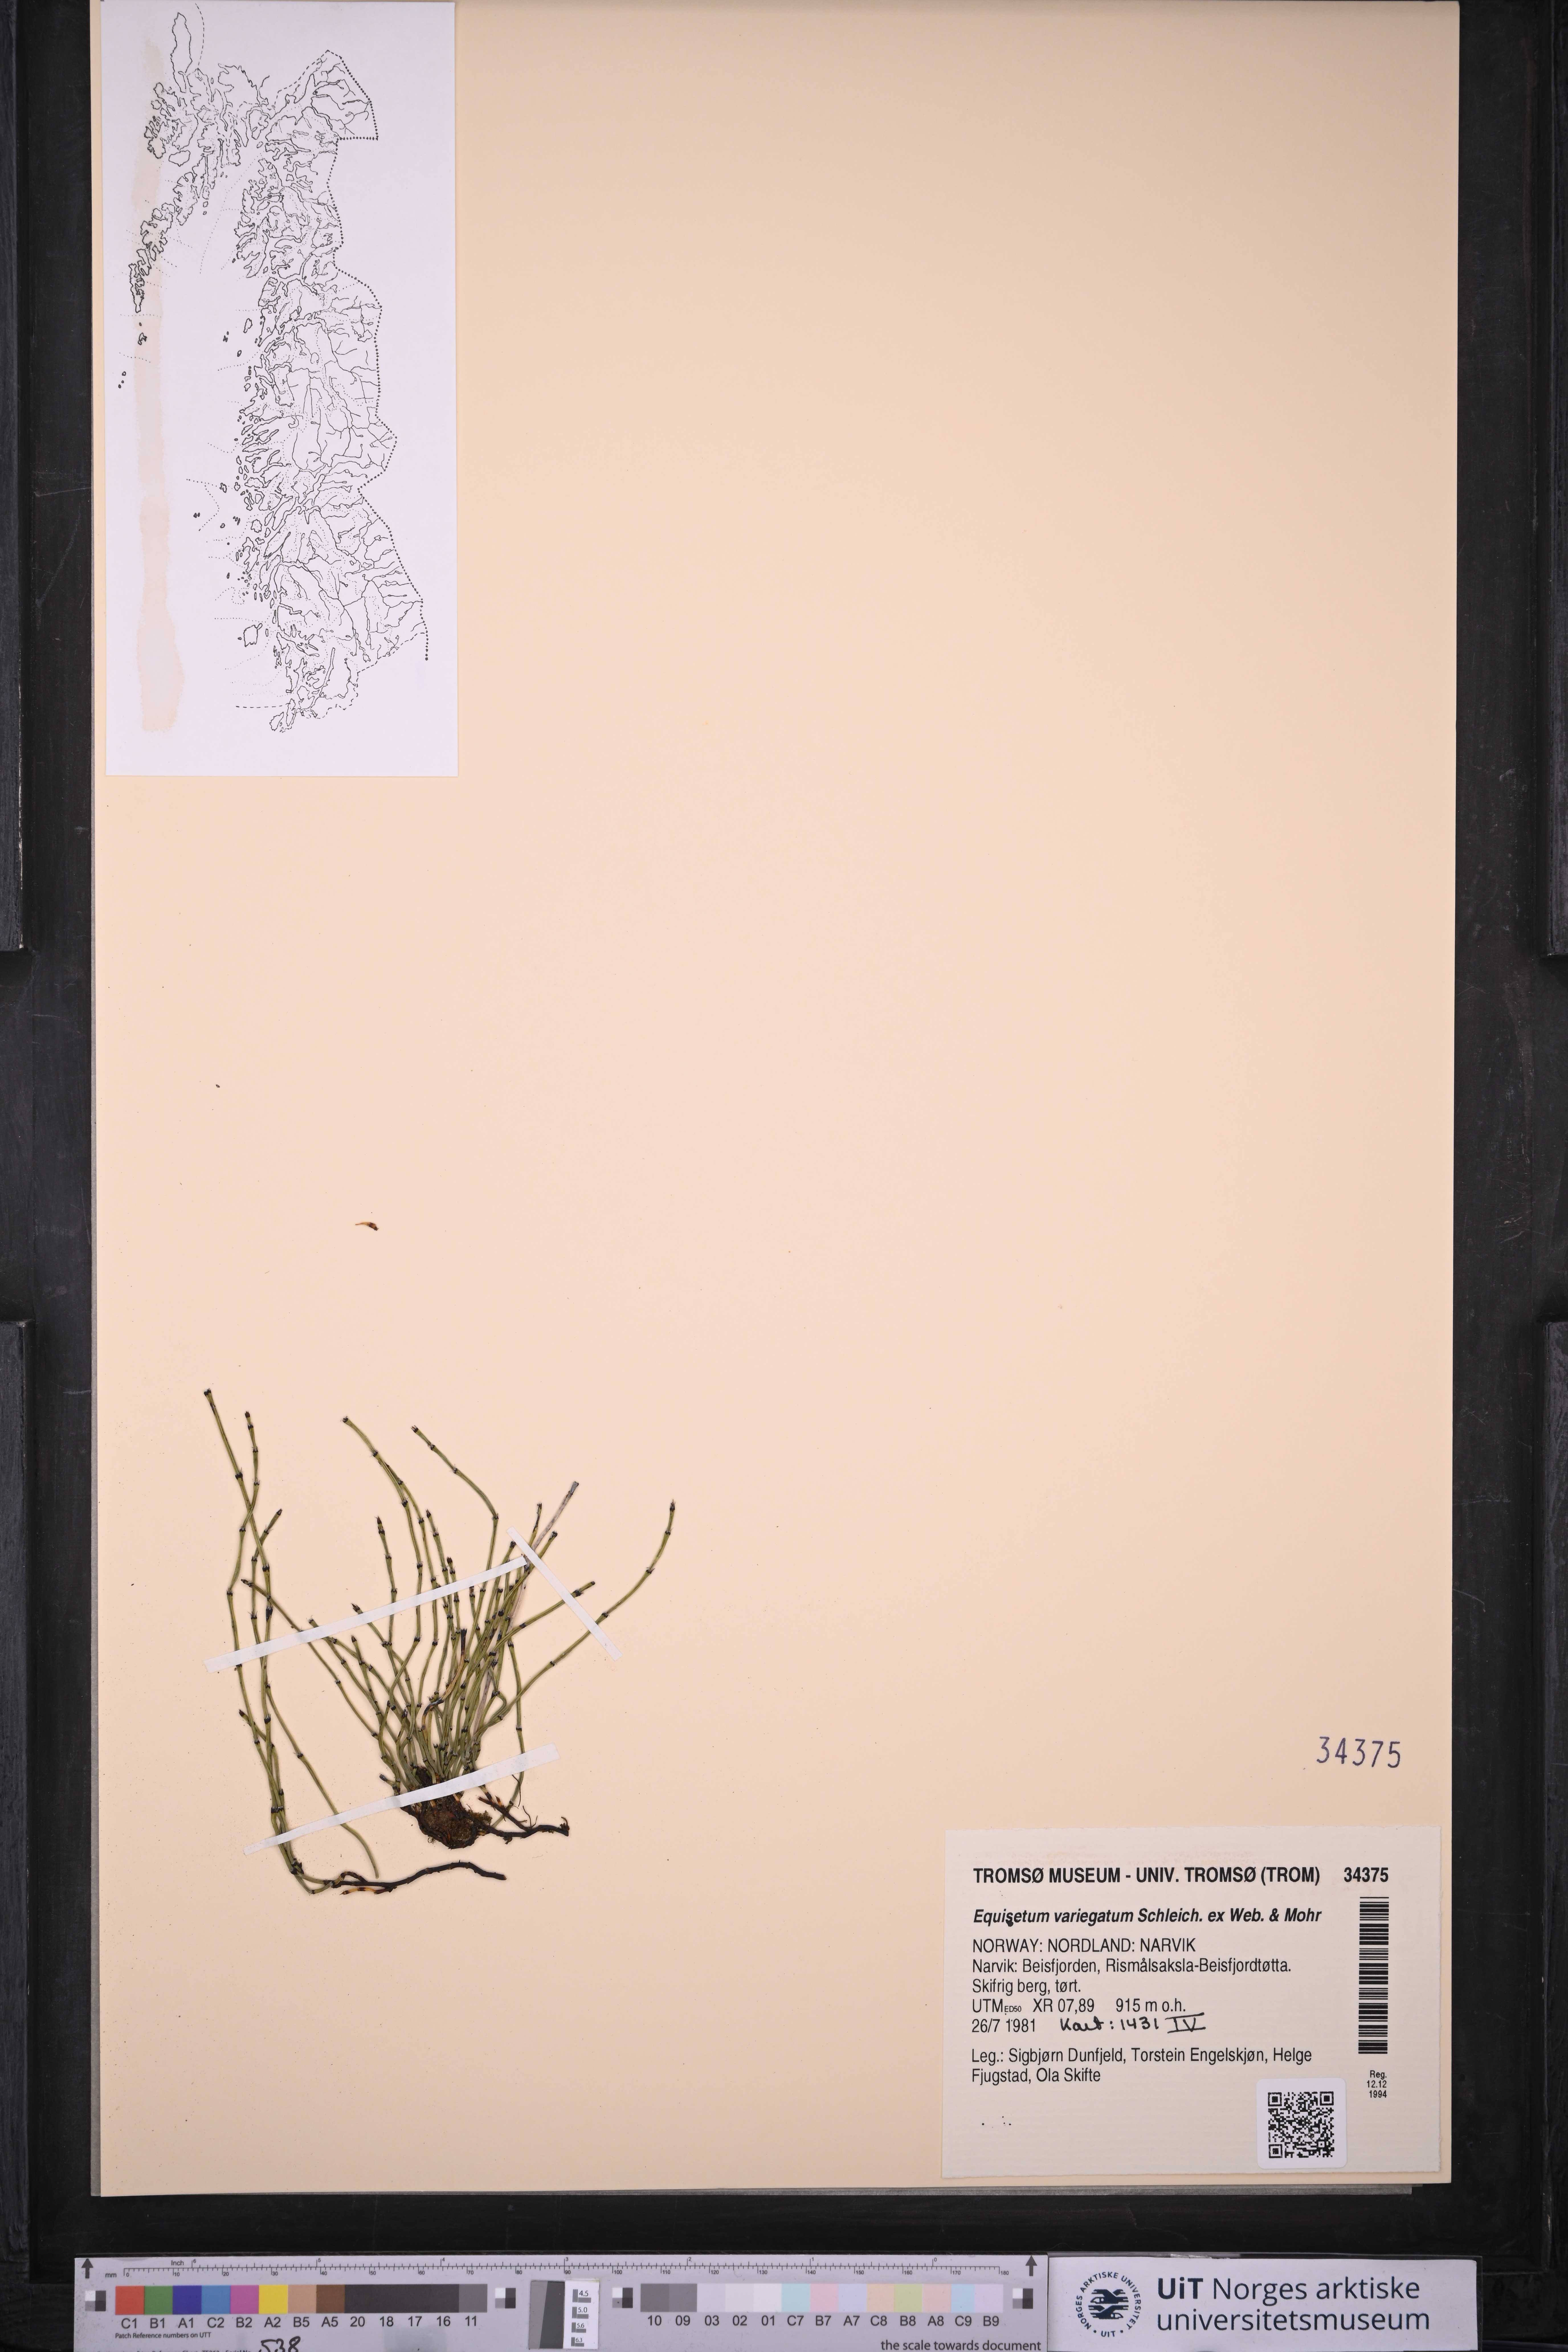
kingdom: Plantae
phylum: Tracheophyta
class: Polypodiopsida
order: Equisetales
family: Equisetaceae
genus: Equisetum
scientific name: Equisetum variegatum
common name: Variegated horsetail
